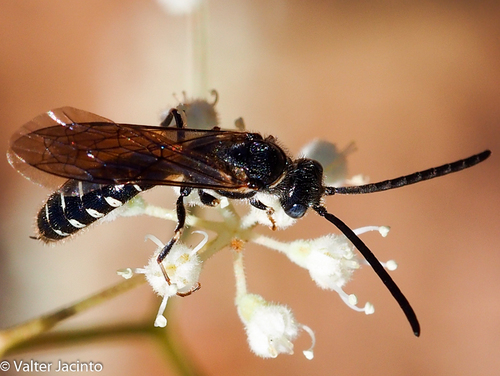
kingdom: Animalia
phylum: Arthropoda
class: Insecta
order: Hymenoptera
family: Tiphiidae
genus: Meria
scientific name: Meria tripunctata
